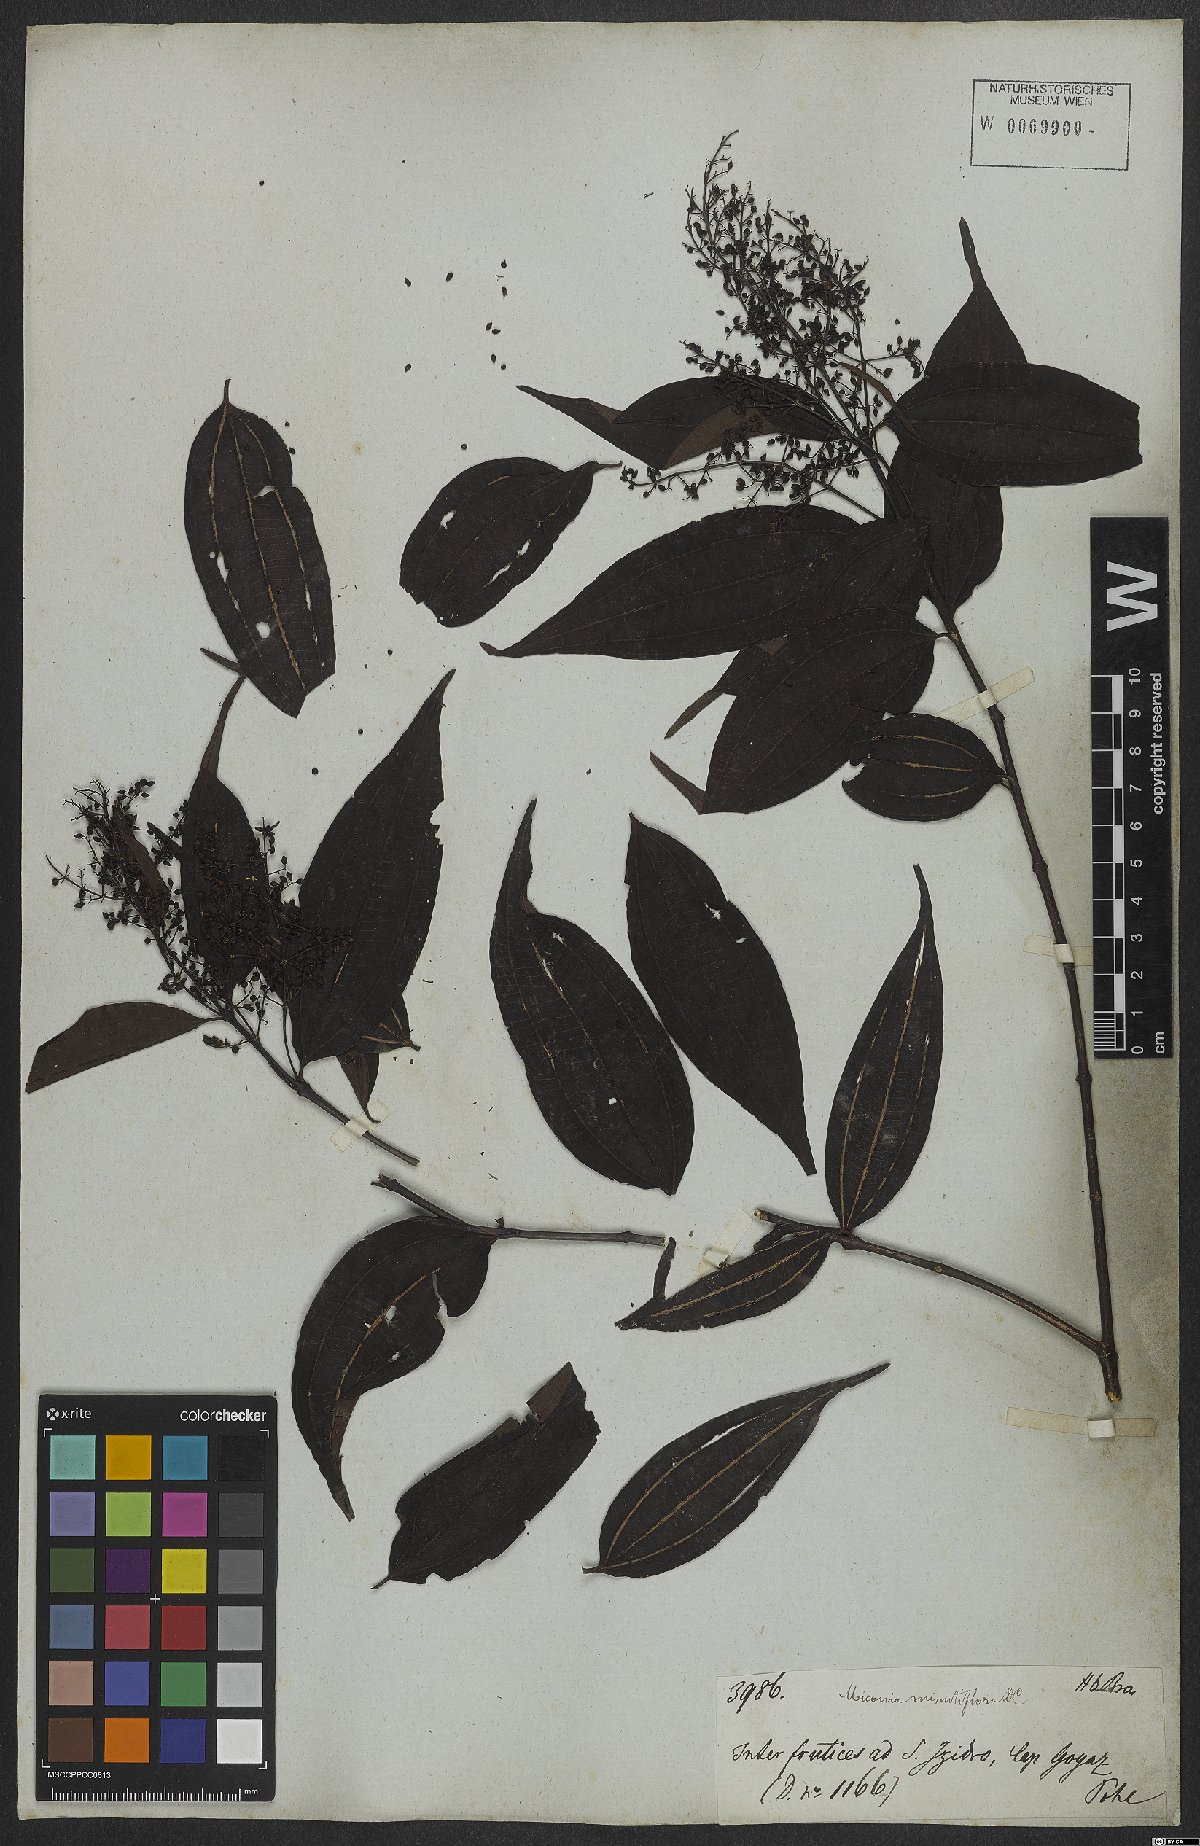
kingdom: Plantae
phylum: Tracheophyta
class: Magnoliopsida
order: Myrtales
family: Melastomataceae
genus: Miconia
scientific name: Miconia minutiflora
